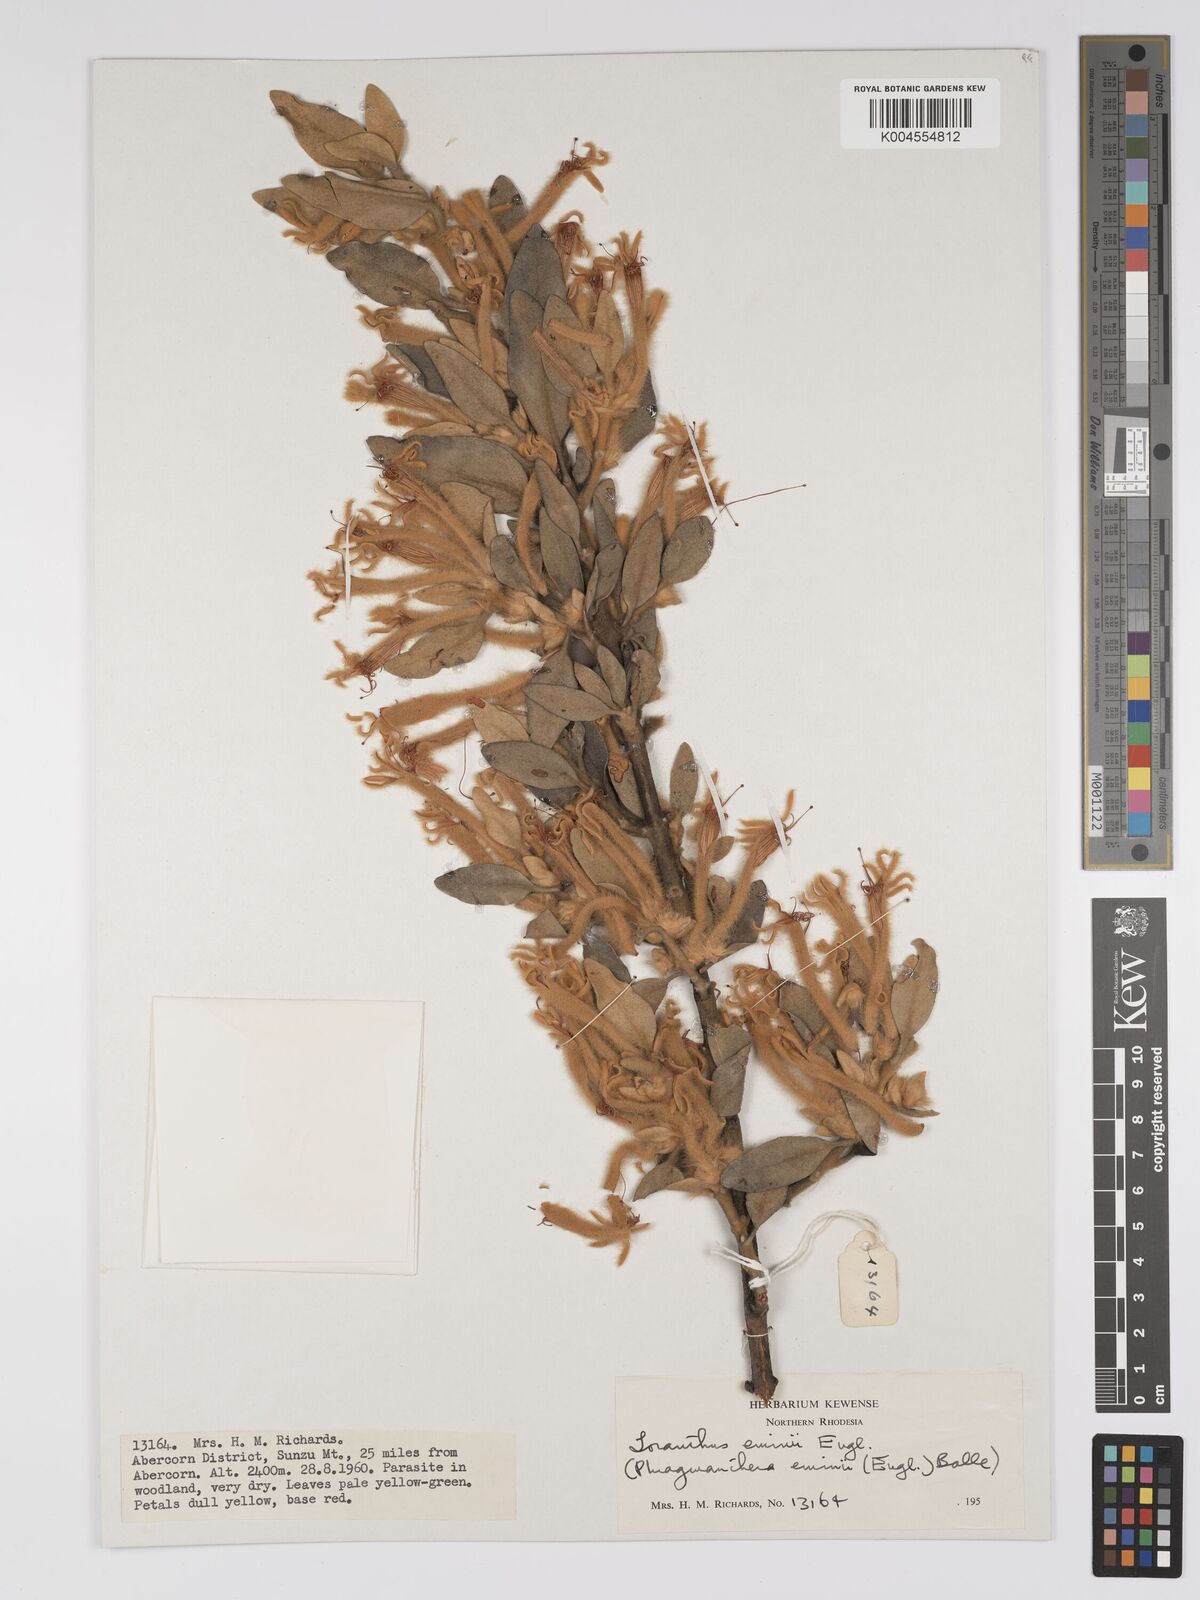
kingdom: Plantae
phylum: Tracheophyta
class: Magnoliopsida
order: Santalales
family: Loranthaceae
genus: Phragmanthera
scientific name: Phragmanthera proteicola
